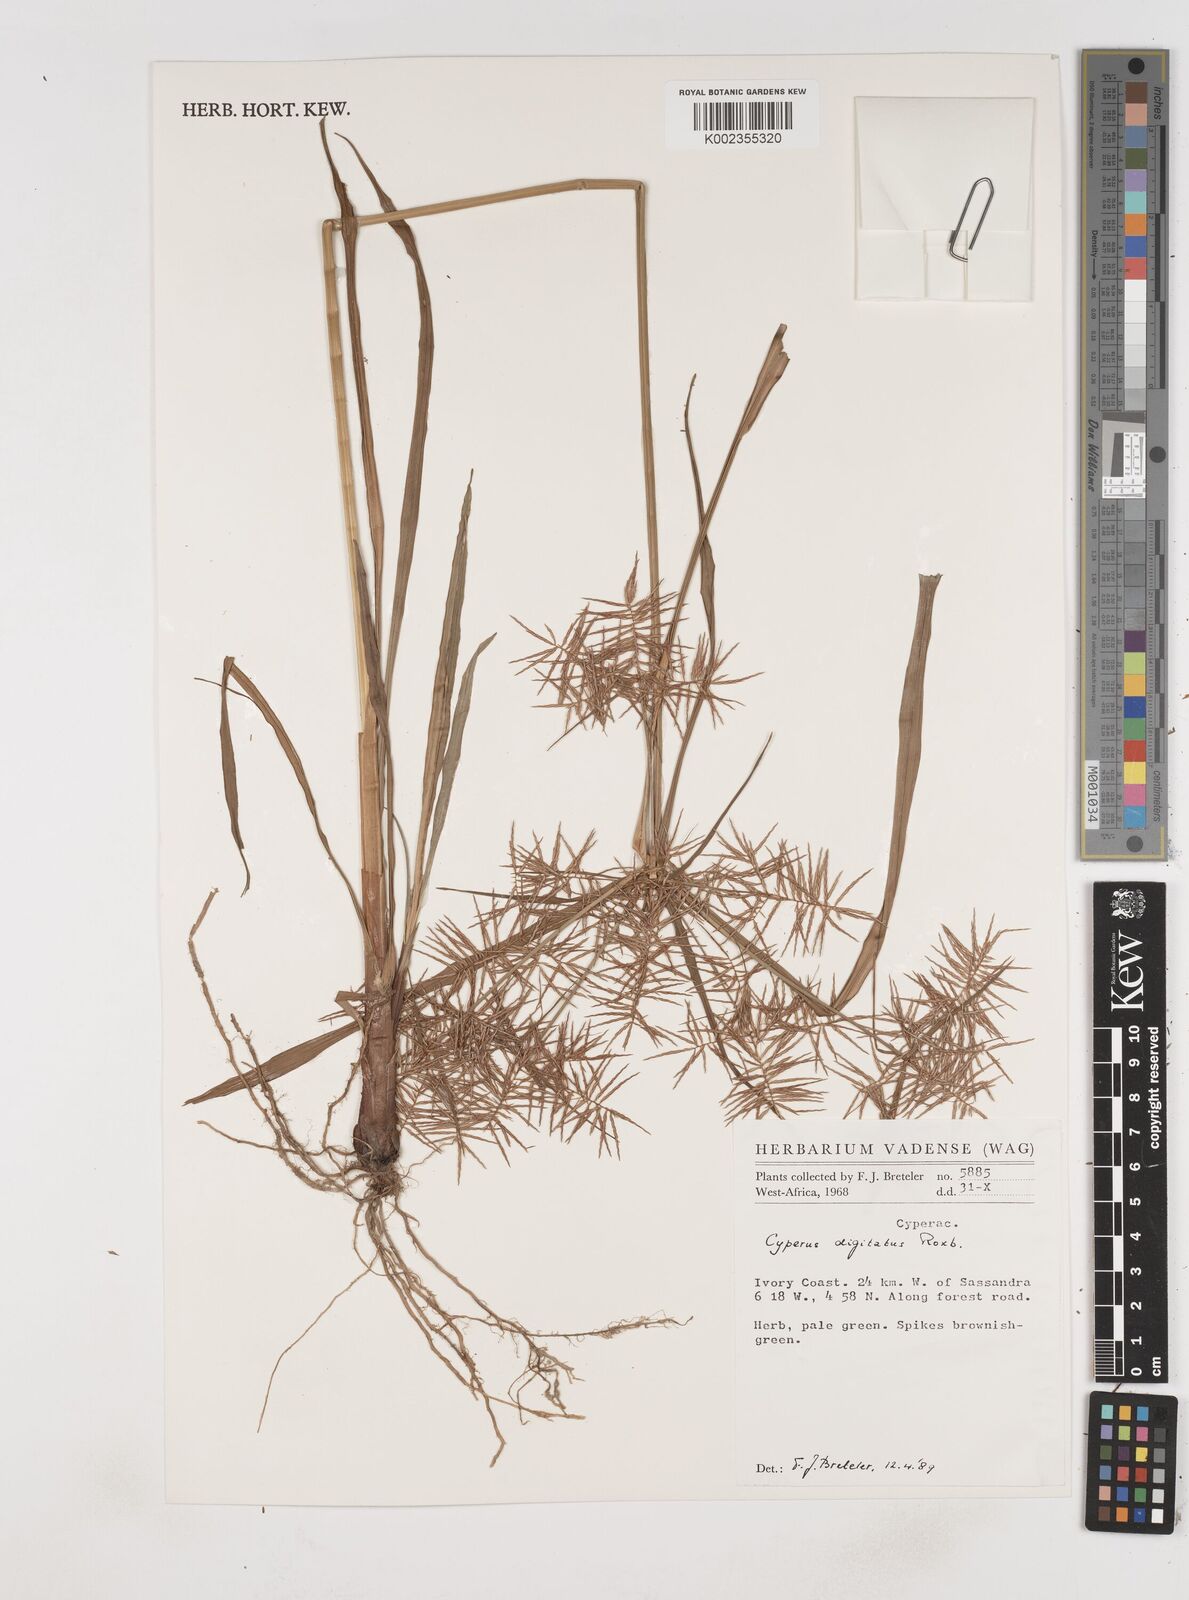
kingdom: Plantae
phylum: Tracheophyta
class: Liliopsida
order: Poales
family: Cyperaceae
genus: Cyperus
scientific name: Cyperus digitatus
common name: Finger flatsedge
